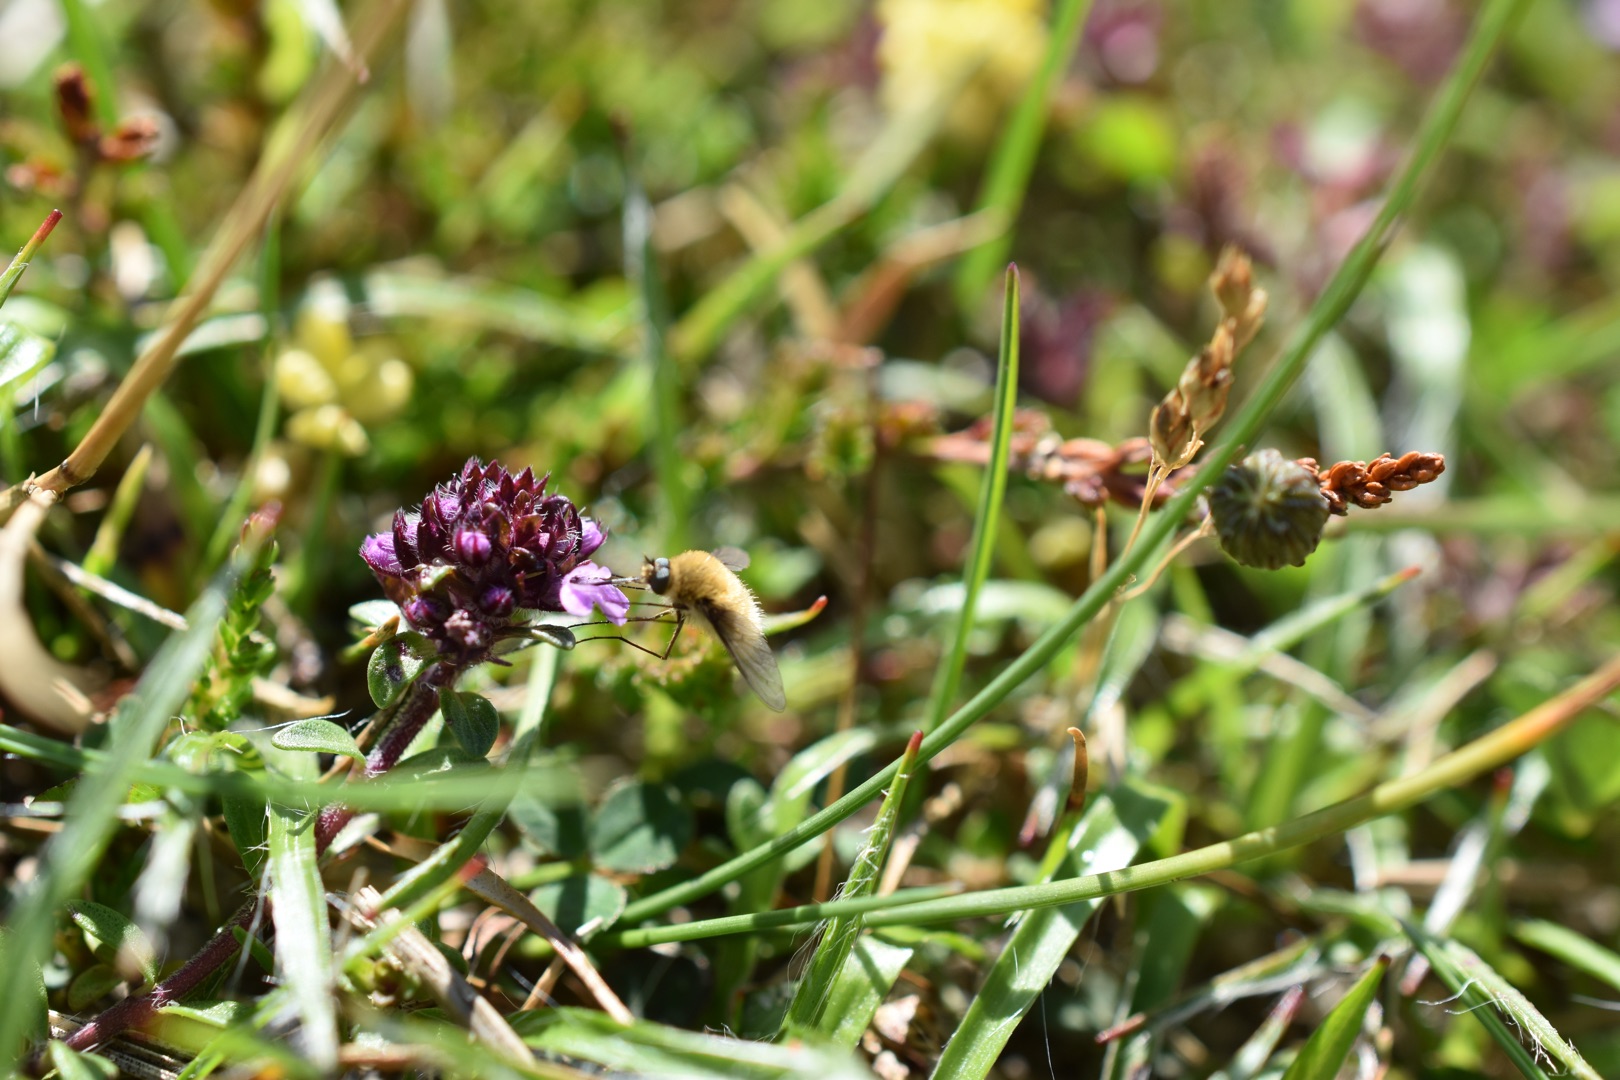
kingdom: Animalia
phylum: Arthropoda
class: Insecta
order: Diptera
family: Bombyliidae
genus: Systoechus
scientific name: Systoechus ctenopterus
